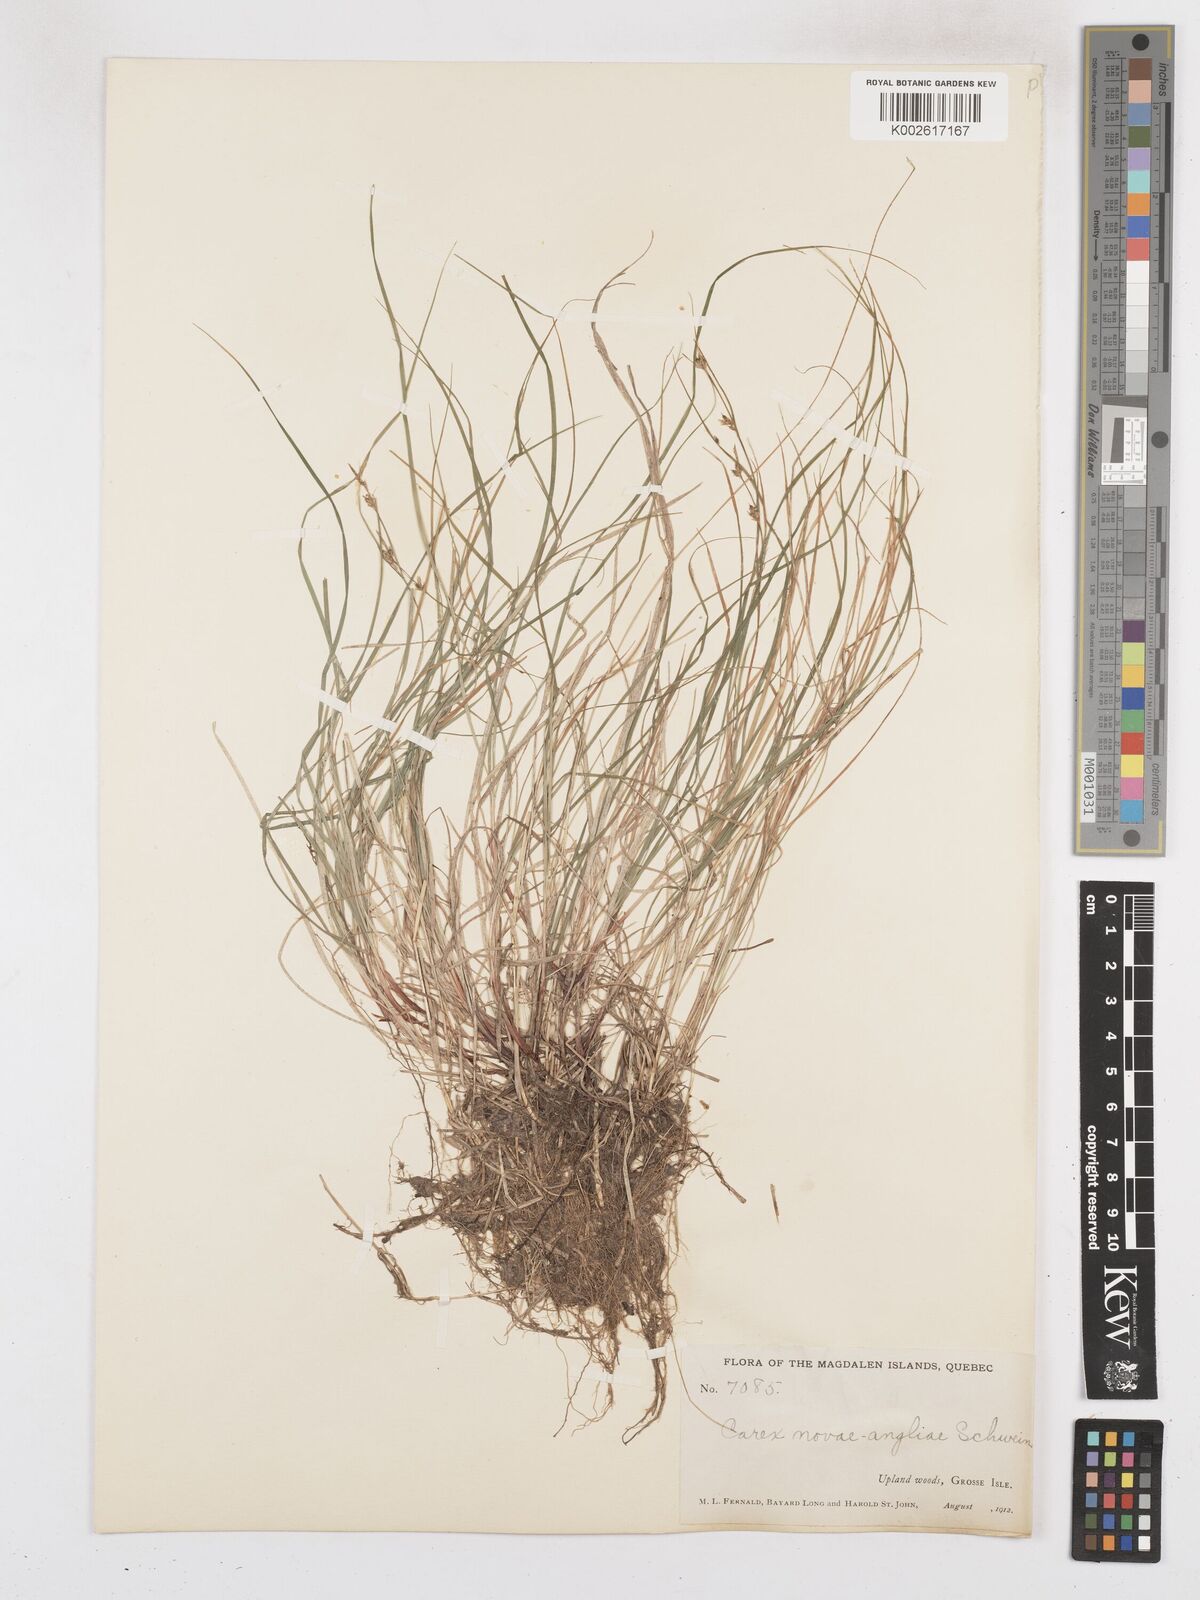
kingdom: Plantae
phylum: Tracheophyta
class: Liliopsida
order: Poales
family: Cyperaceae
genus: Carex
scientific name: Carex novae-angliae
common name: New england sedge
